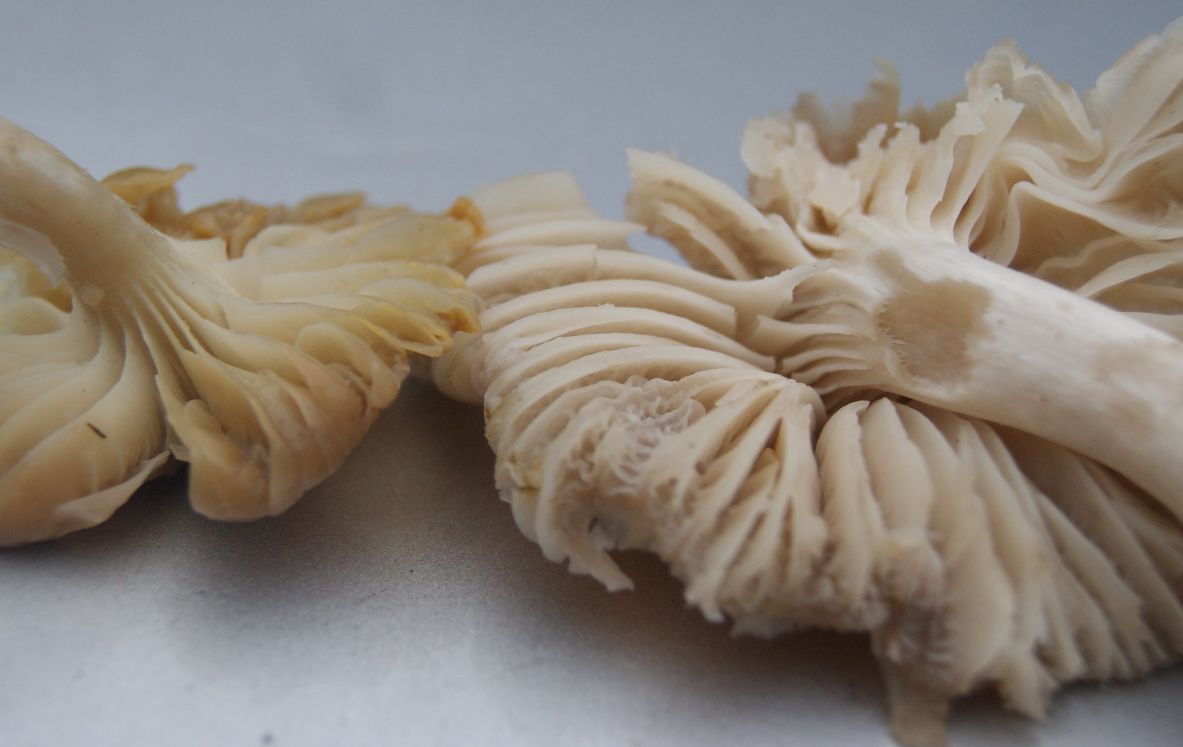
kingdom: Fungi
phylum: Basidiomycota
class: Agaricomycetes
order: Agaricales
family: Hygrophoraceae
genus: Cuphophyllus
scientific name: Cuphophyllus flavipes
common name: gulfodet vokshat
